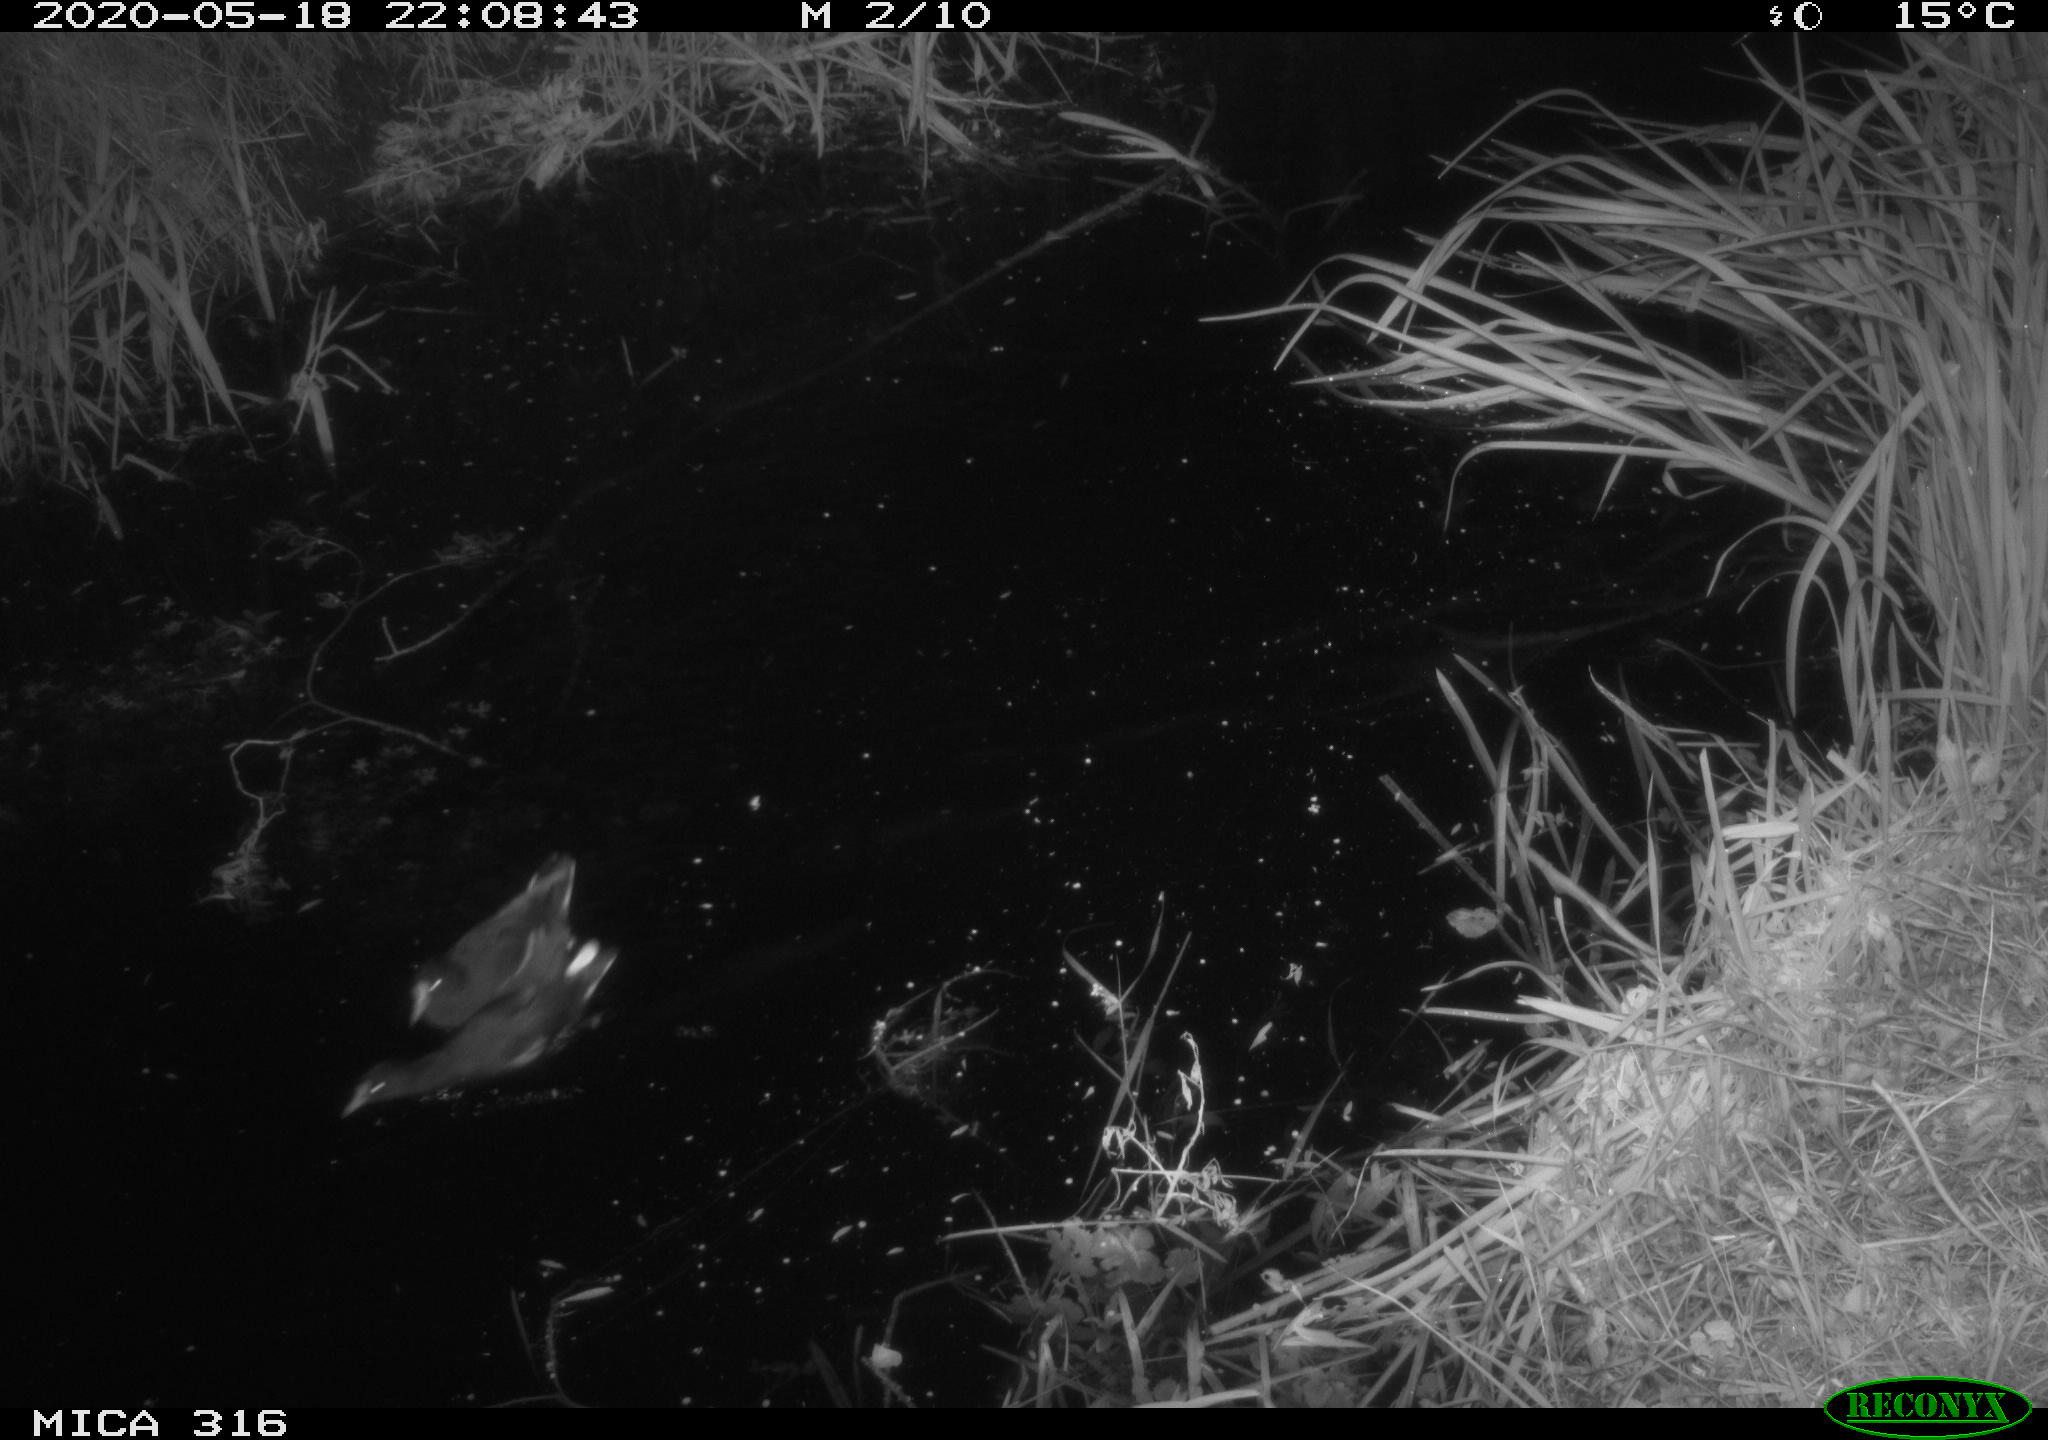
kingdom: Animalia
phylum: Chordata
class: Aves
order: Gruiformes
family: Rallidae
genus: Gallinula
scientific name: Gallinula chloropus
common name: Common moorhen
